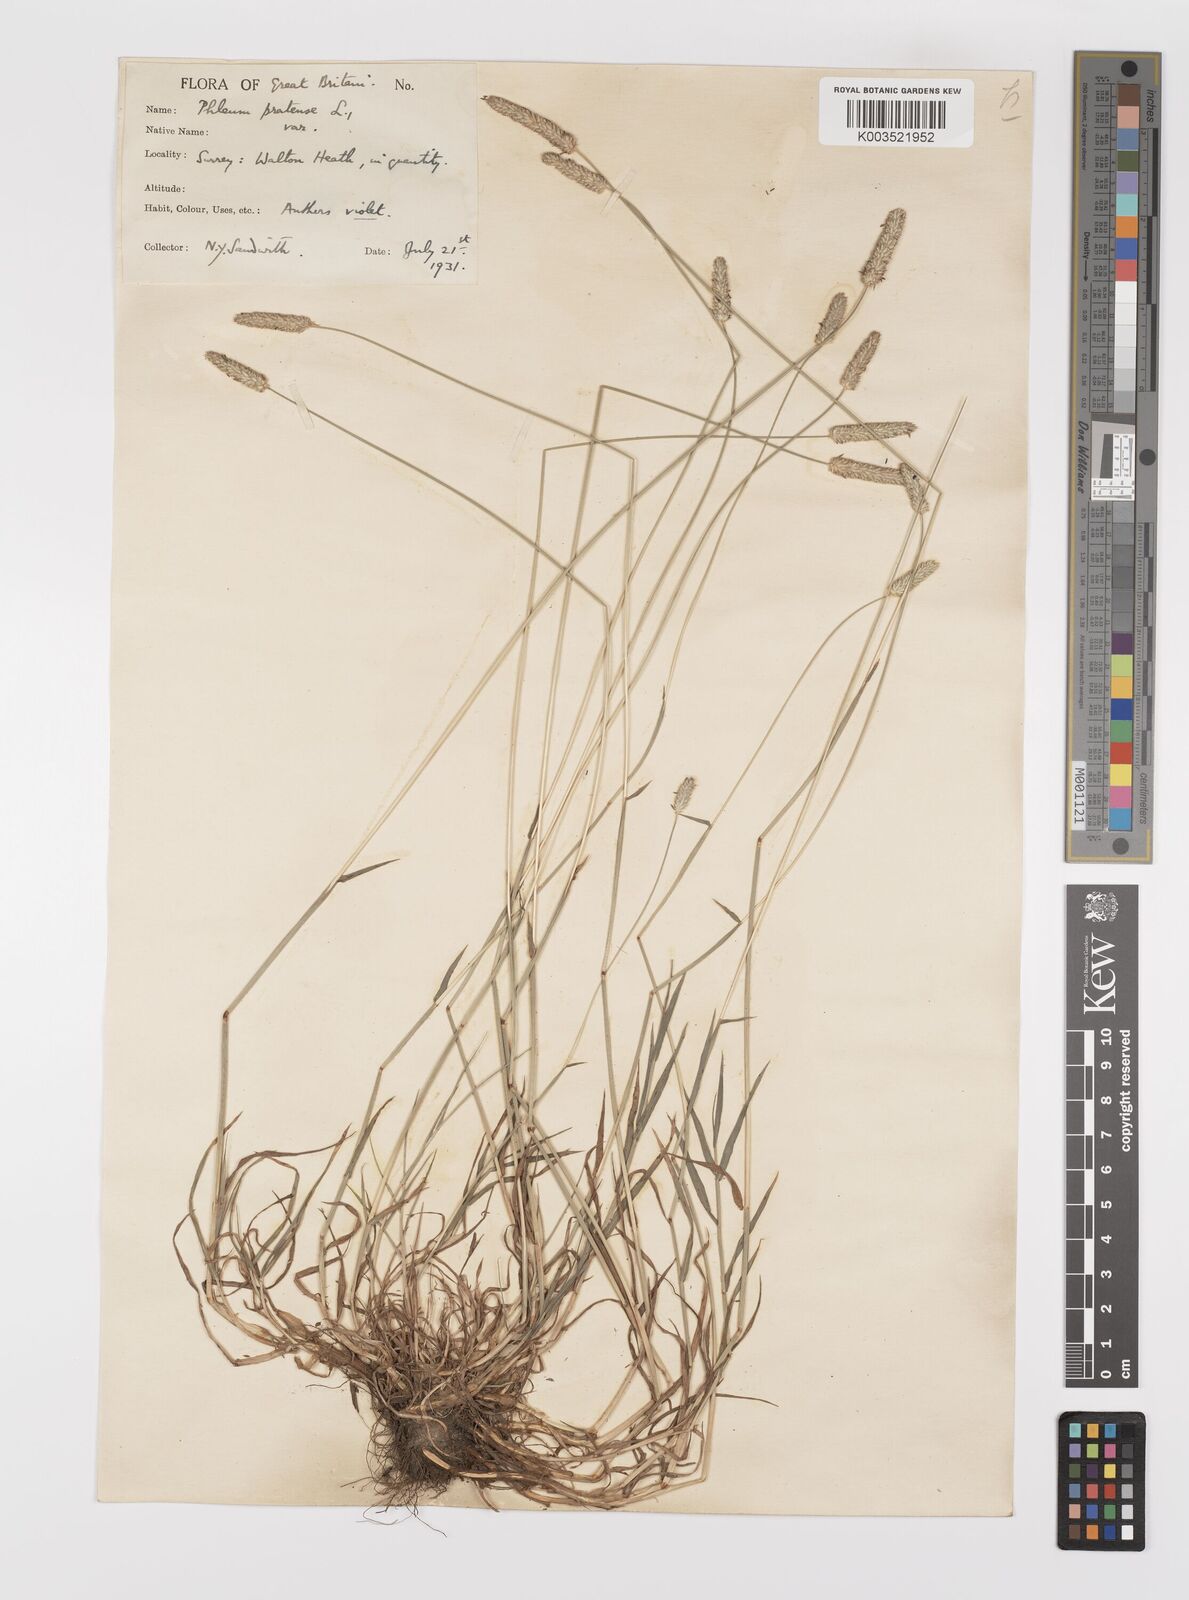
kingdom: Plantae
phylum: Tracheophyta
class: Liliopsida
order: Poales
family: Poaceae
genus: Phleum
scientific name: Phleum bertolonii
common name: Smaller cat's-tail
